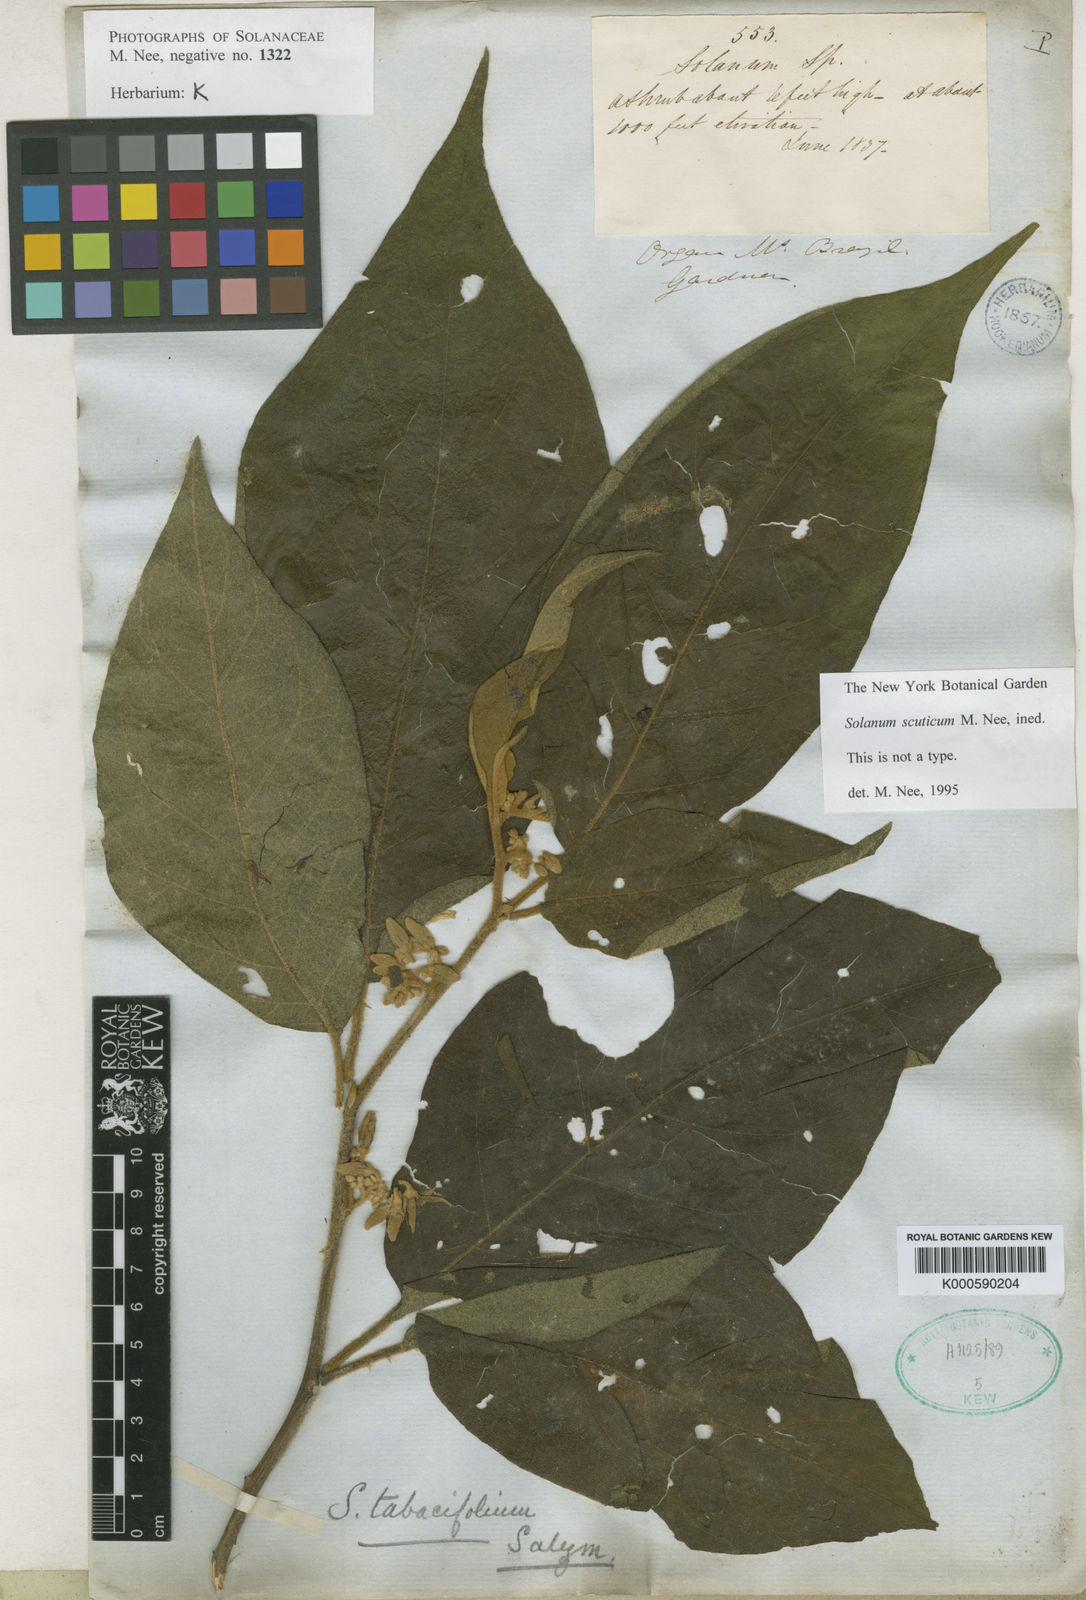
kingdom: Plantae
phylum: Tracheophyta
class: Magnoliopsida
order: Solanales
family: Solanaceae
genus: Solanum
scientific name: Solanum scuticum
